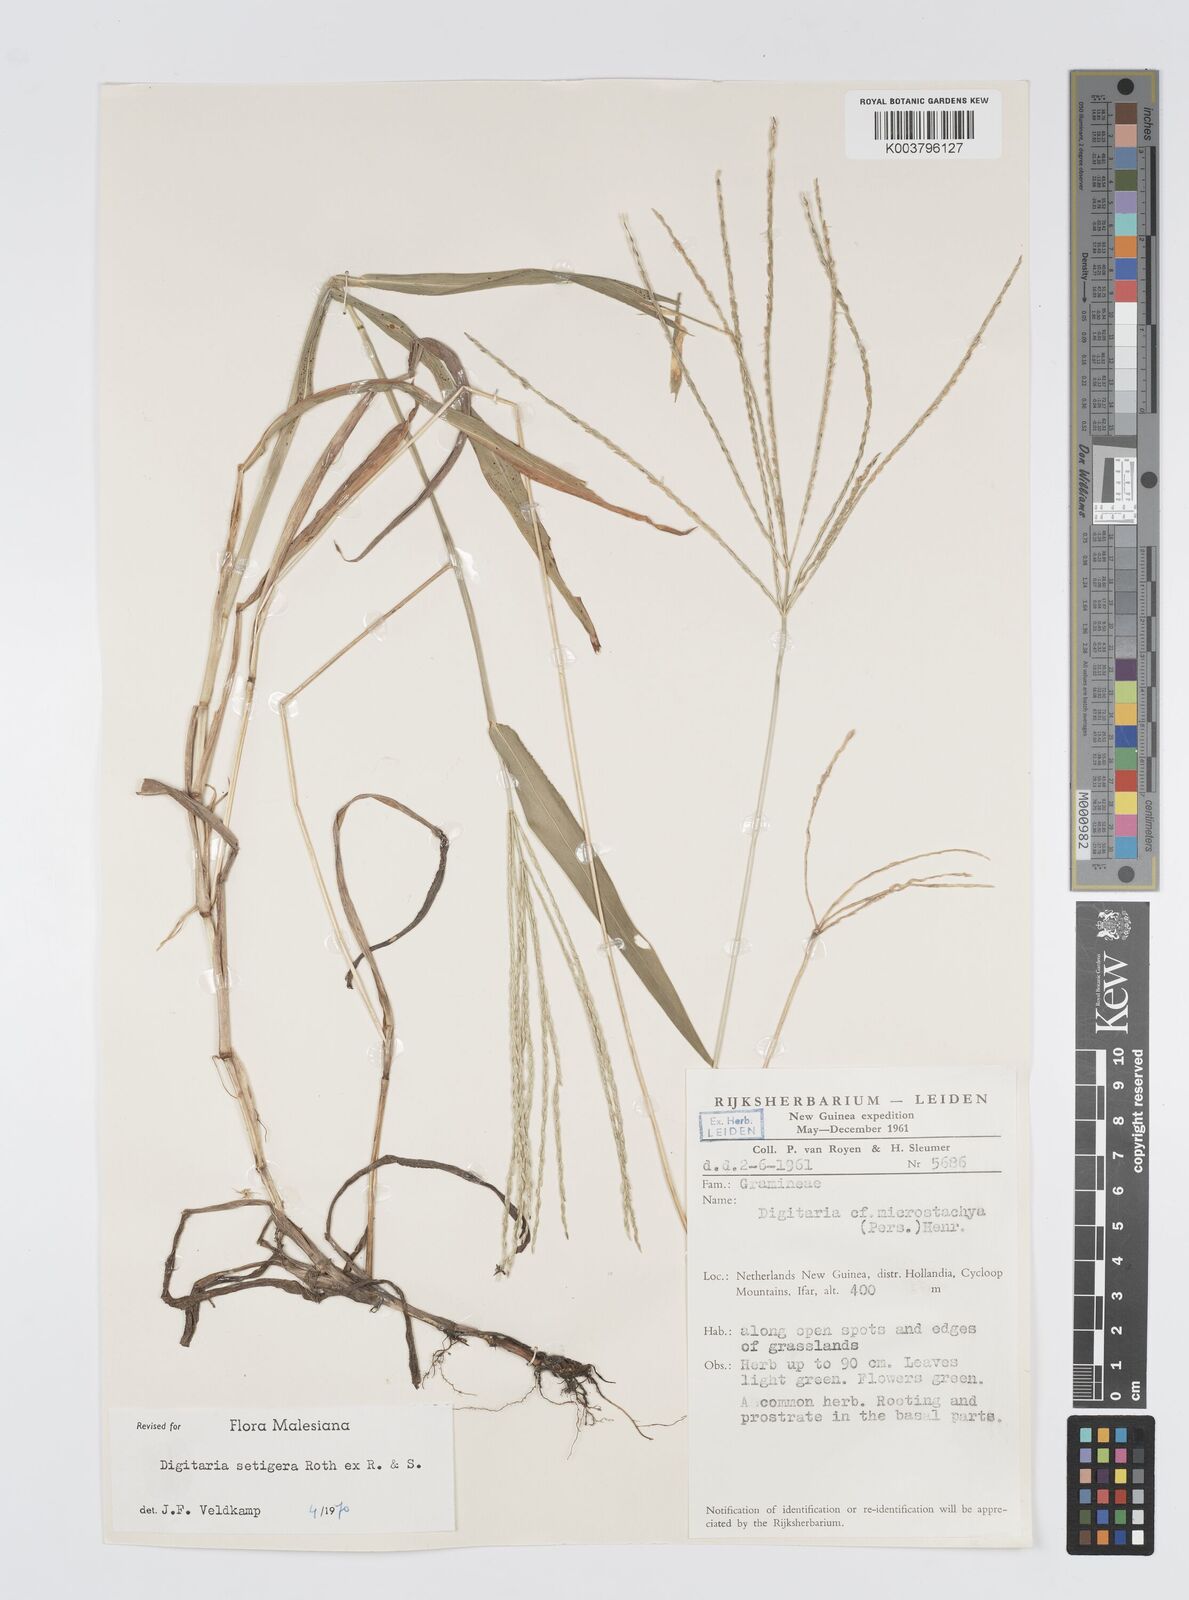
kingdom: Plantae
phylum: Tracheophyta
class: Liliopsida
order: Poales
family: Poaceae
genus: Digitaria
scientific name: Digitaria setigera
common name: East indian crabgrass
